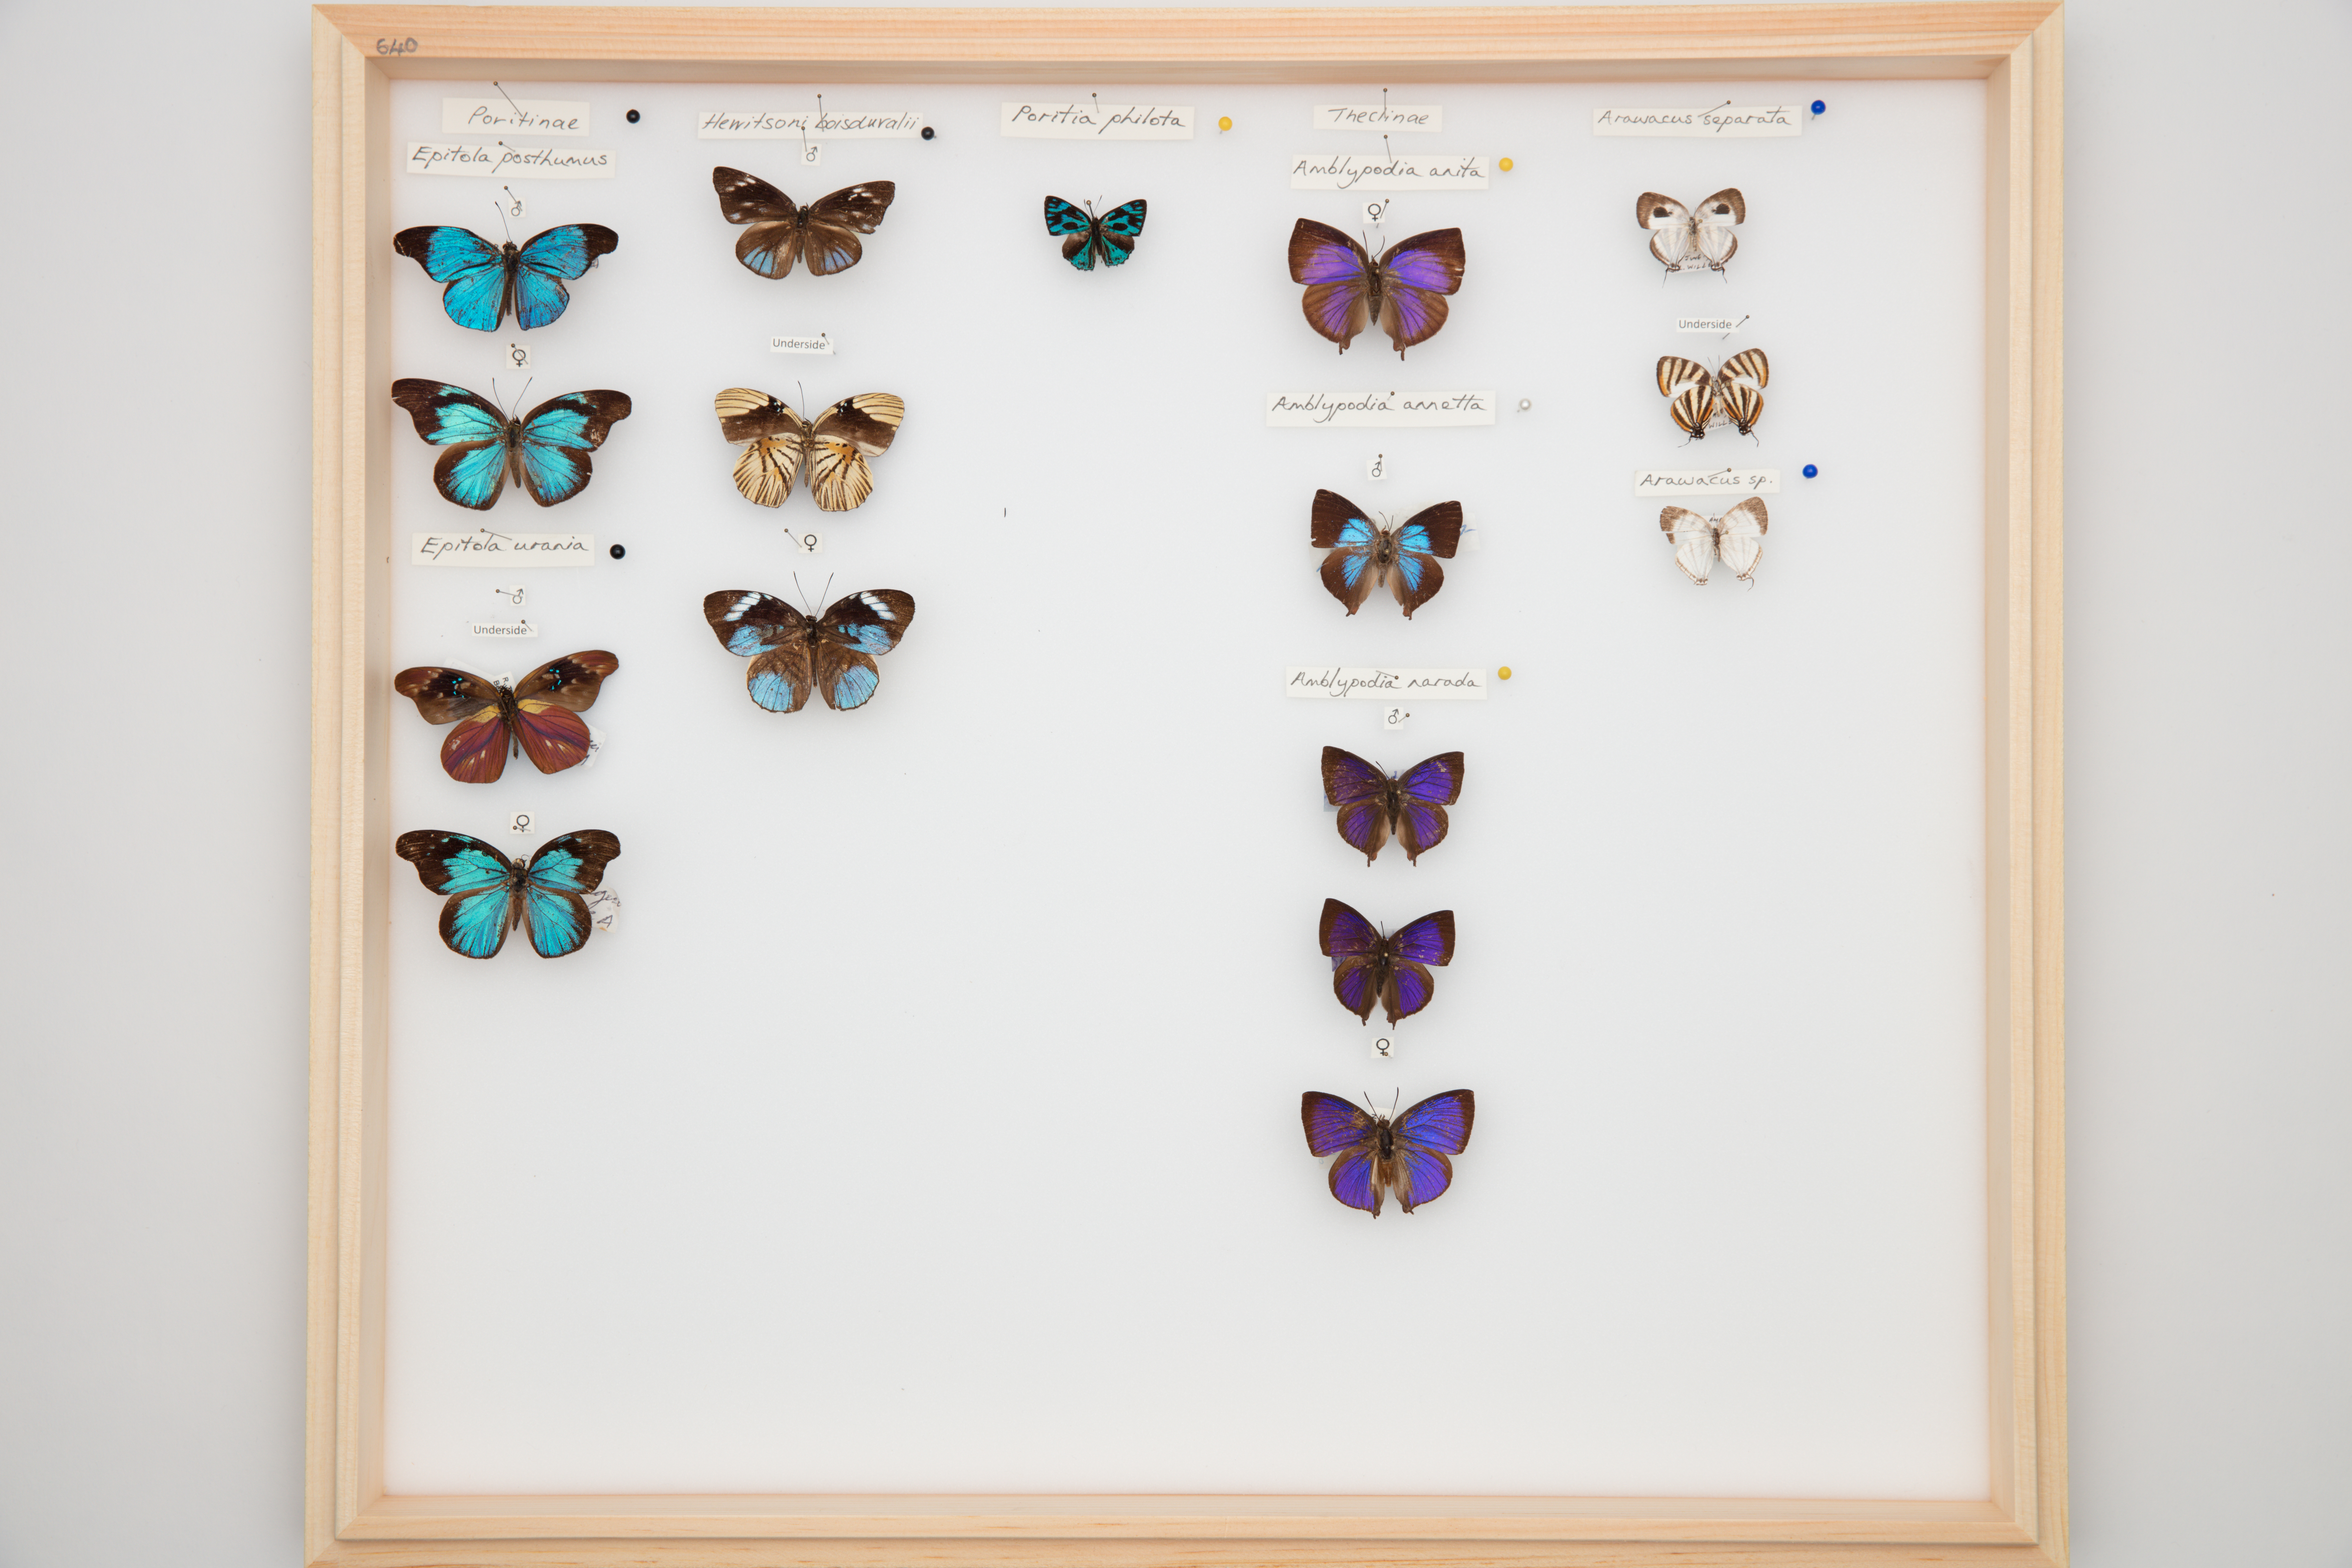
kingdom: Animalia
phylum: Arthropoda
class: Insecta
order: Lepidoptera
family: Lycaenidae
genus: Amblypodia
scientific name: Amblypodia narada
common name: Blue leaf blue
